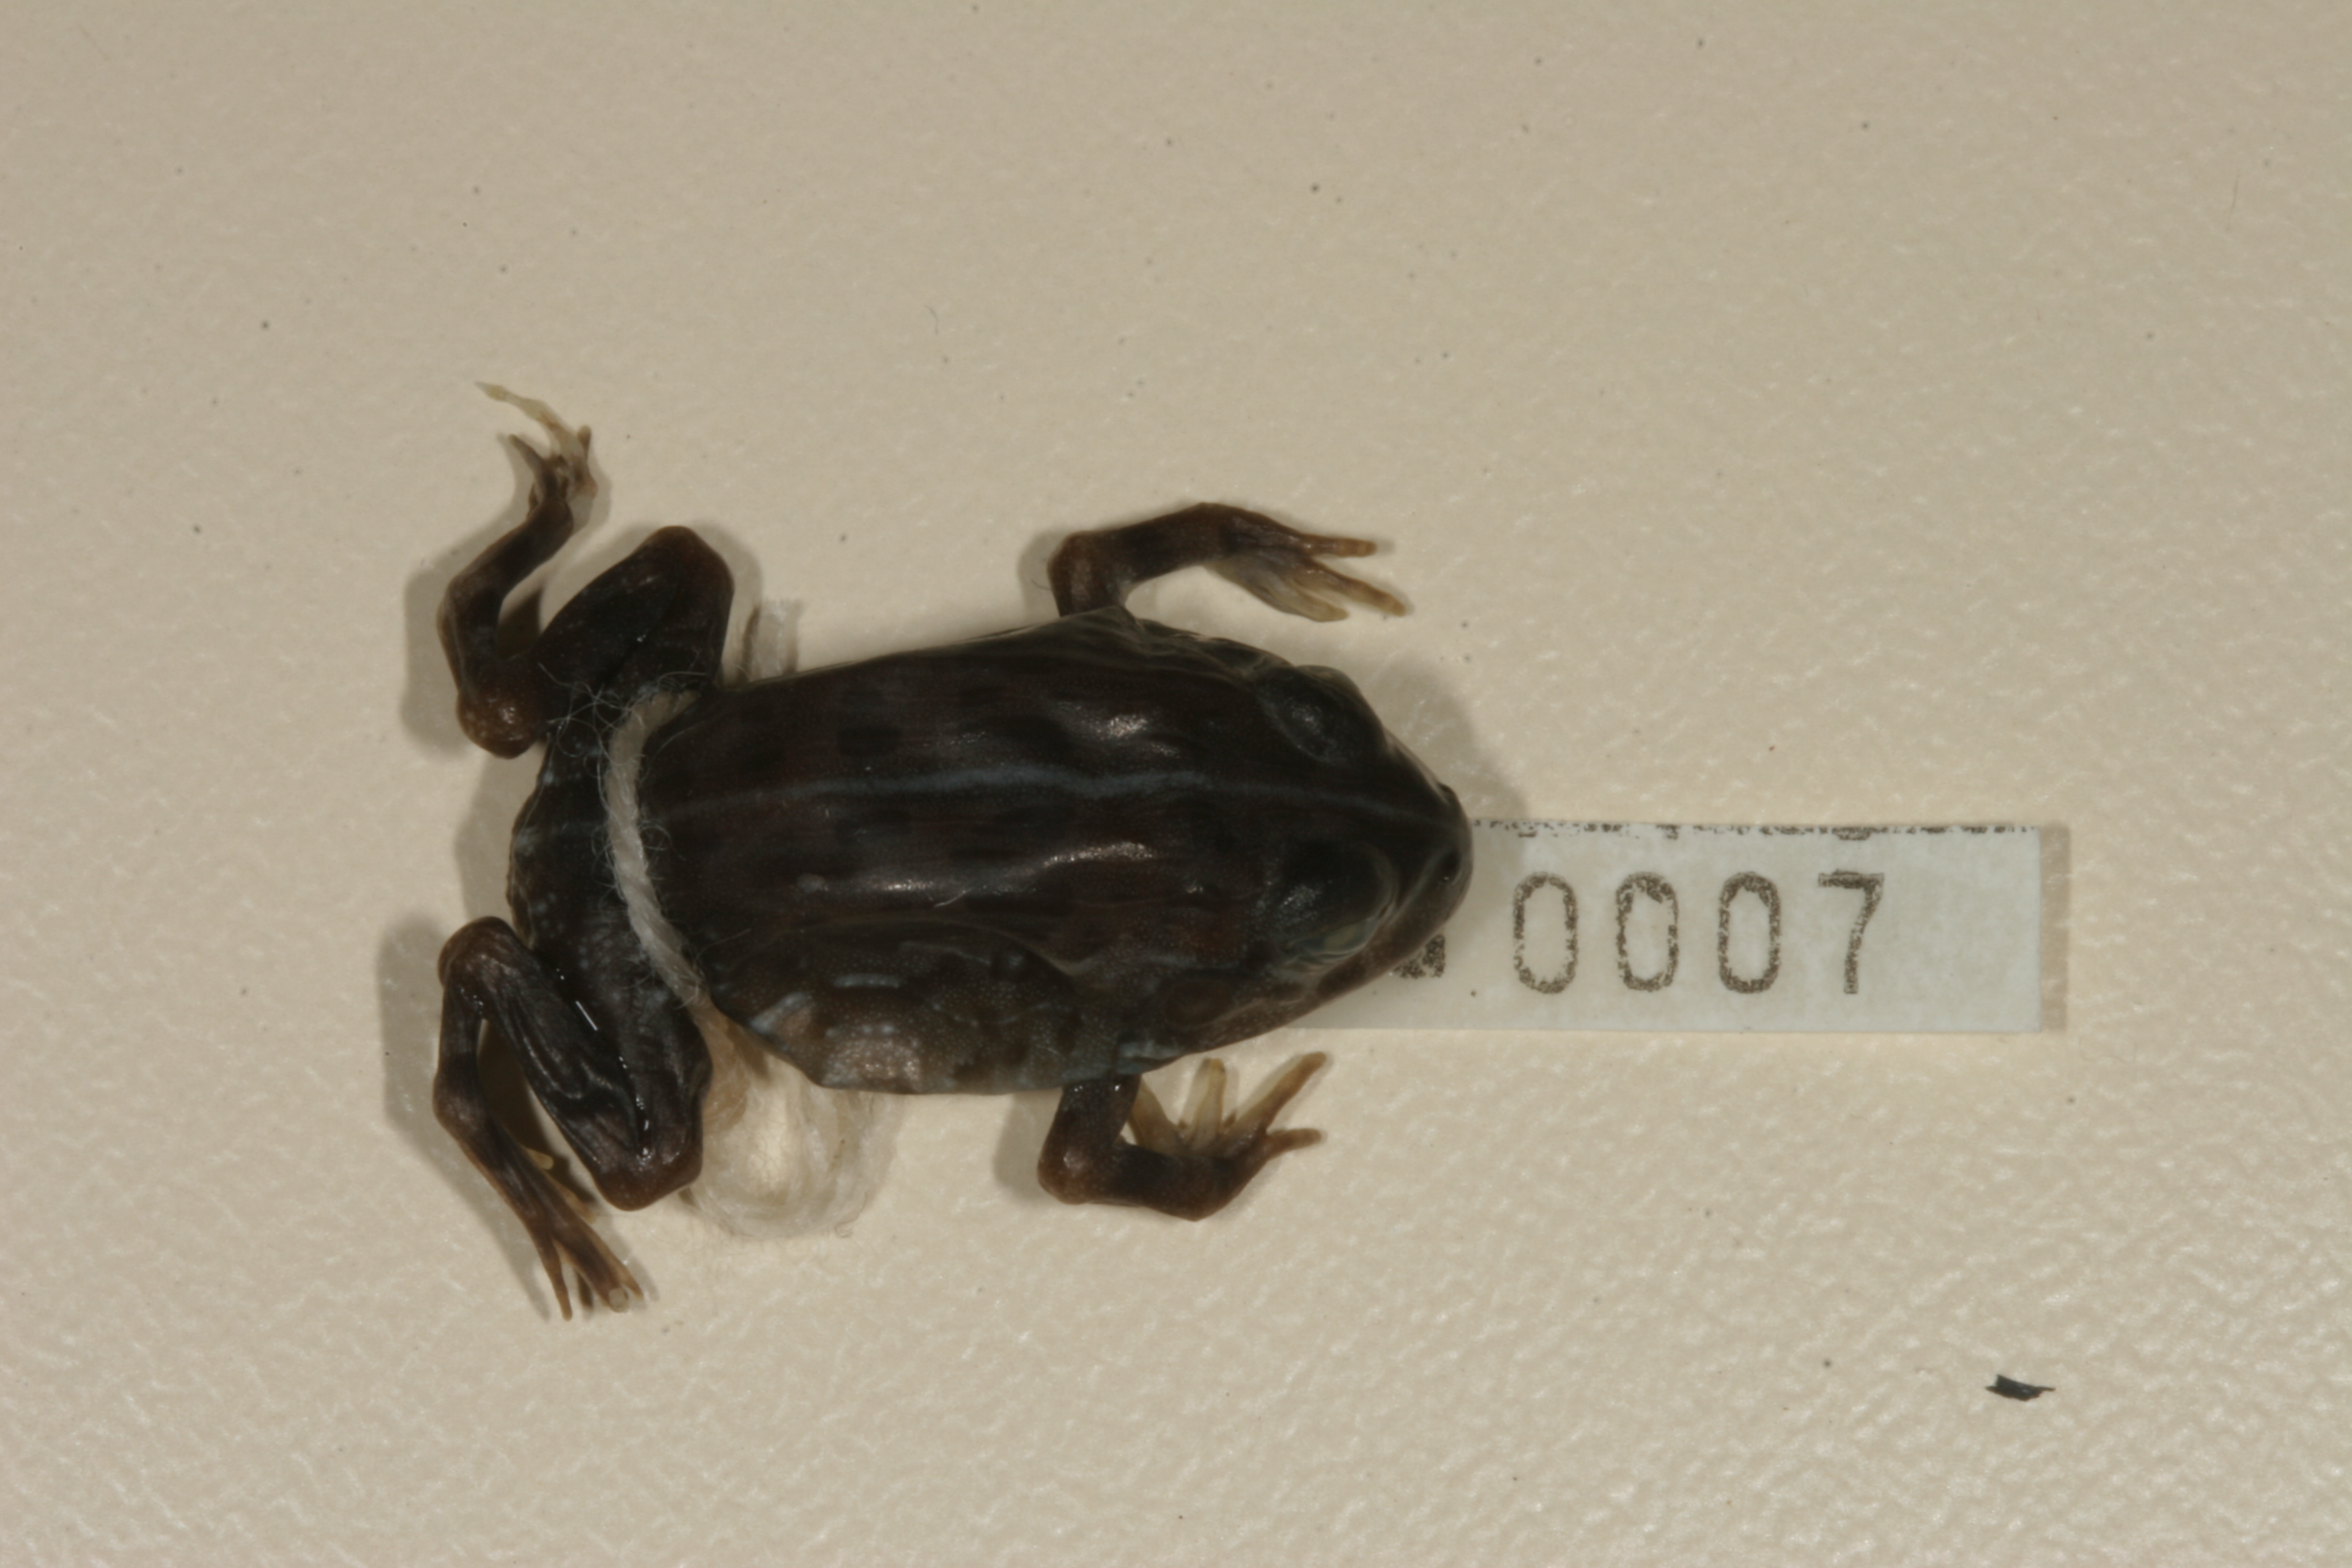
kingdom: Animalia
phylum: Chordata
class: Amphibia
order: Anura
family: Hyperoliidae
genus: Kassina
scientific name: Kassina senegalensis
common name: Senegal land frog
